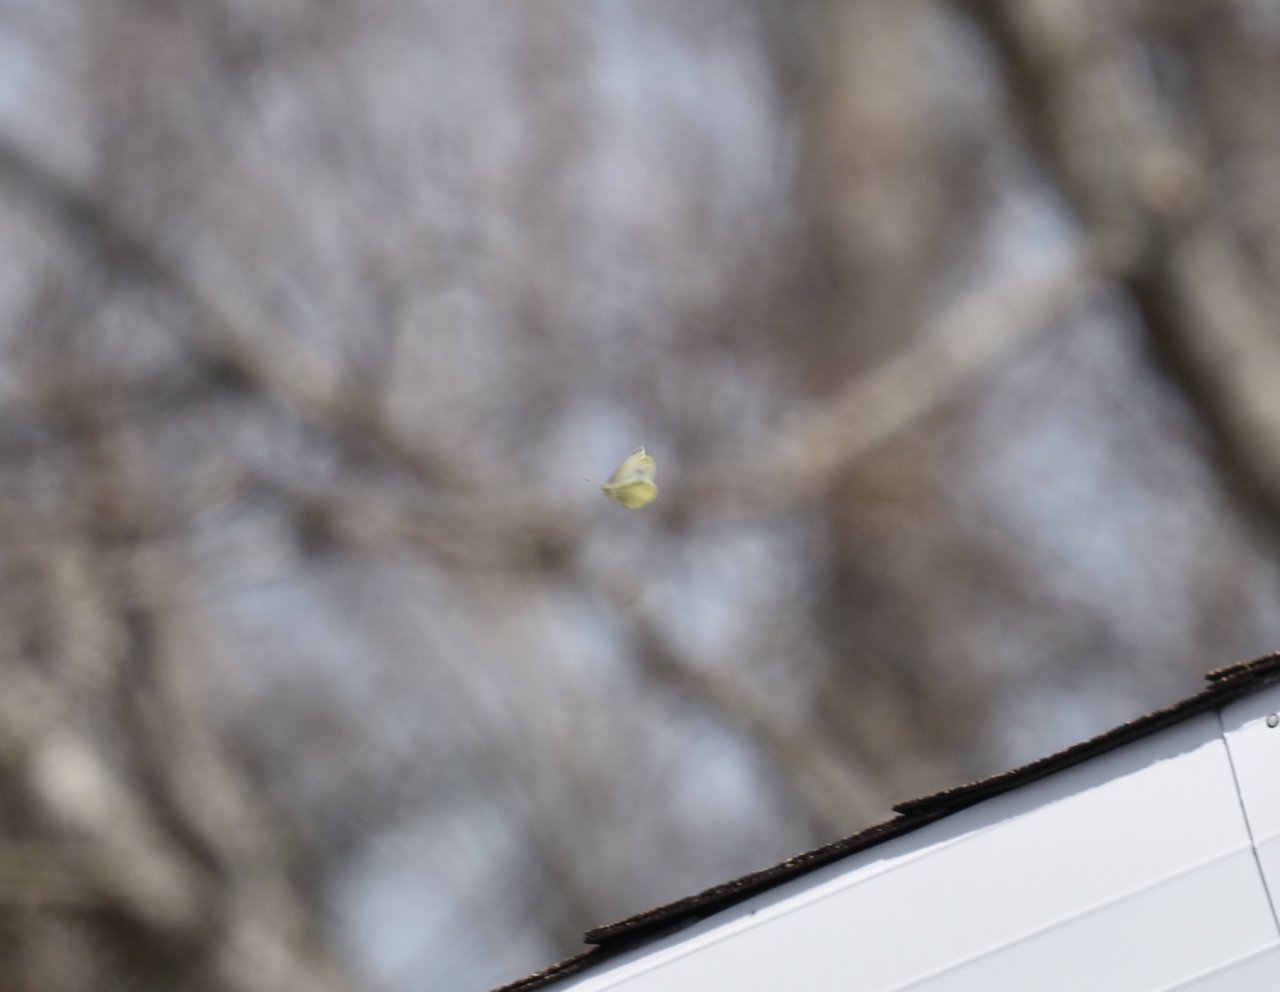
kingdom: Animalia
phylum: Arthropoda
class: Insecta
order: Lepidoptera
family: Pieridae
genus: Pieris
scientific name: Pieris rapae
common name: Cabbage White
